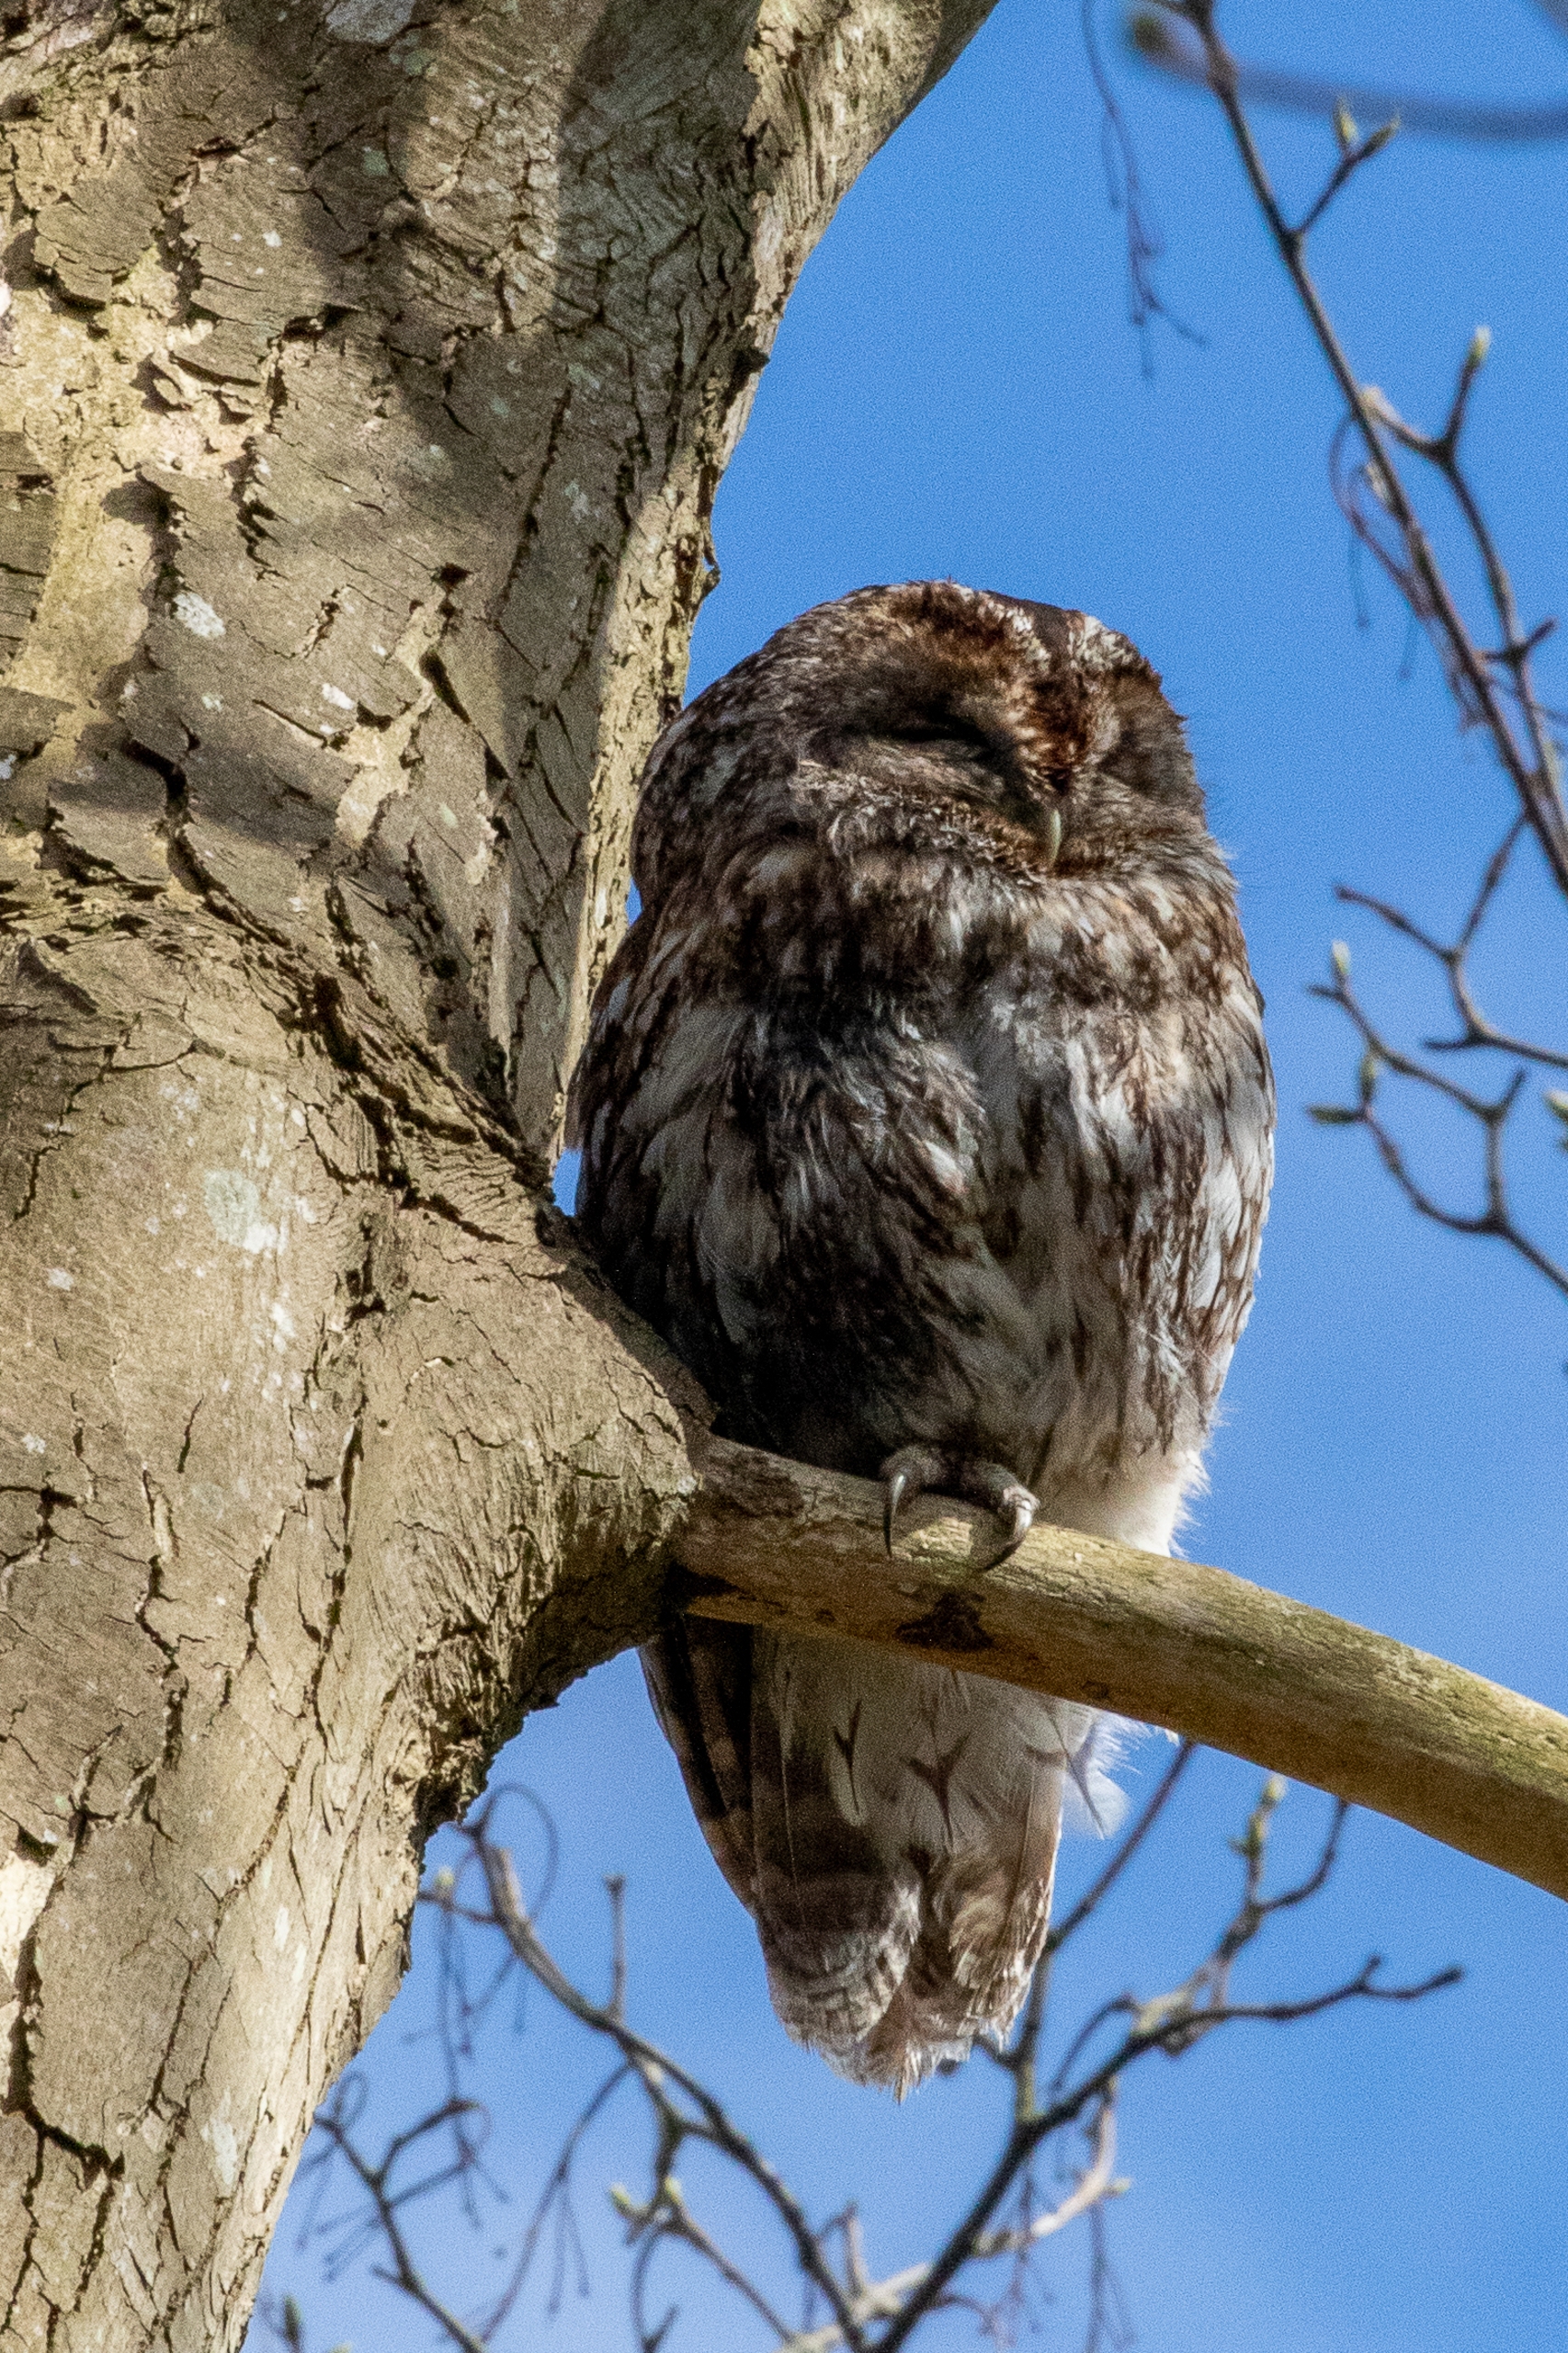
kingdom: Animalia
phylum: Chordata
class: Aves
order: Strigiformes
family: Strigidae
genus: Strix
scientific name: Strix aluco
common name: Natugle
